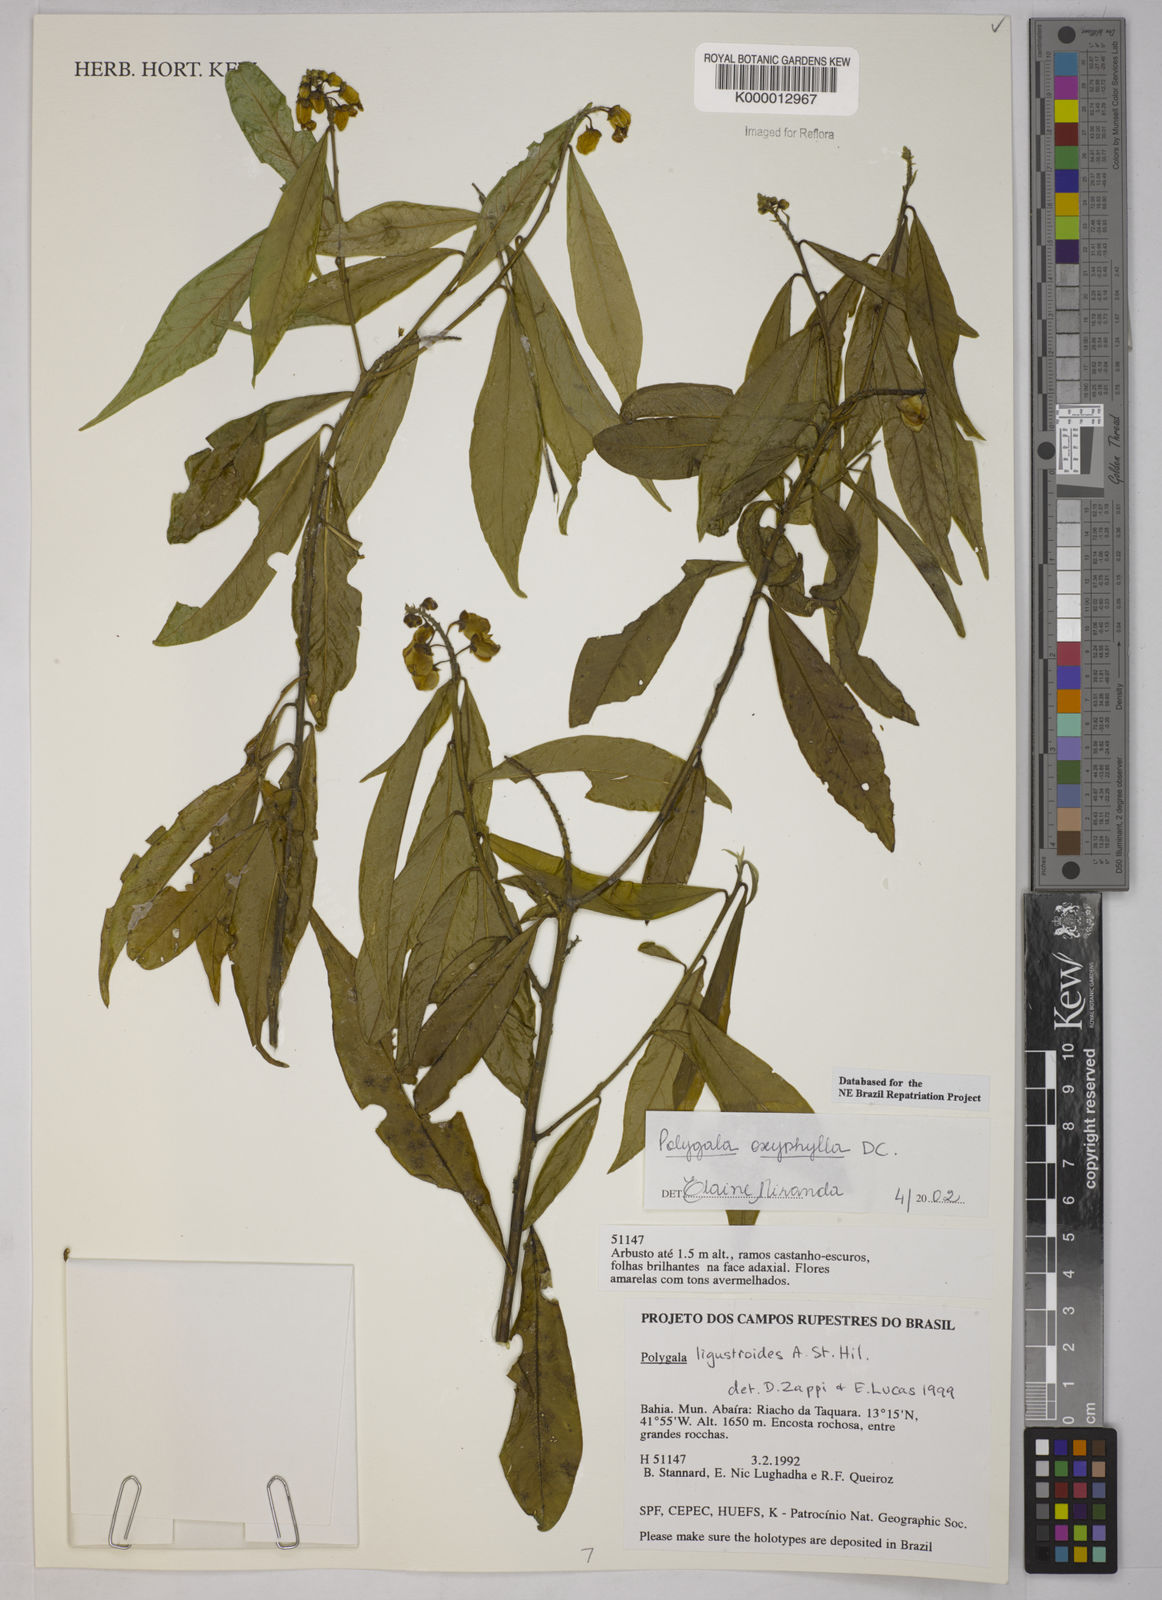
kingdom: Plantae
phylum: Tracheophyta
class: Magnoliopsida
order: Fabales
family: Polygalaceae
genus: Caamembeca
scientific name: Caamembeca oxyphylla
